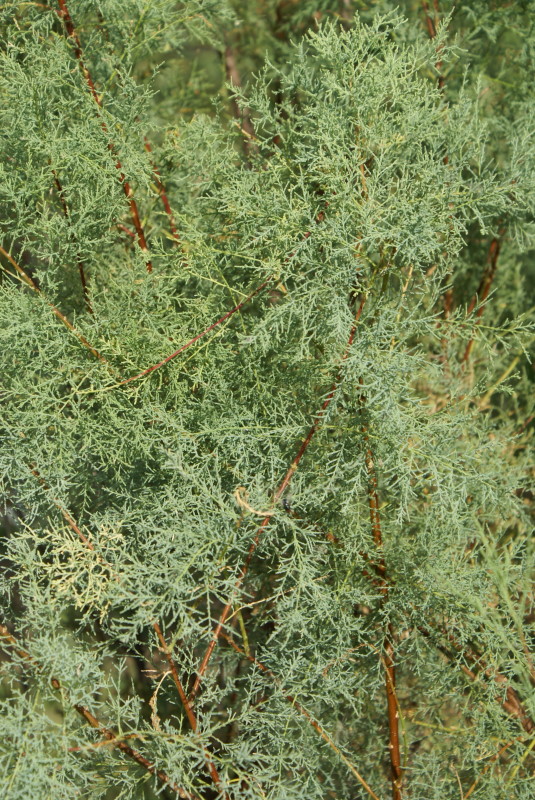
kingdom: Plantae
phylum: Tracheophyta
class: Magnoliopsida
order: Caryophyllales
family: Tamaricaceae
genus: Tamarix
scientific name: Tamarix
